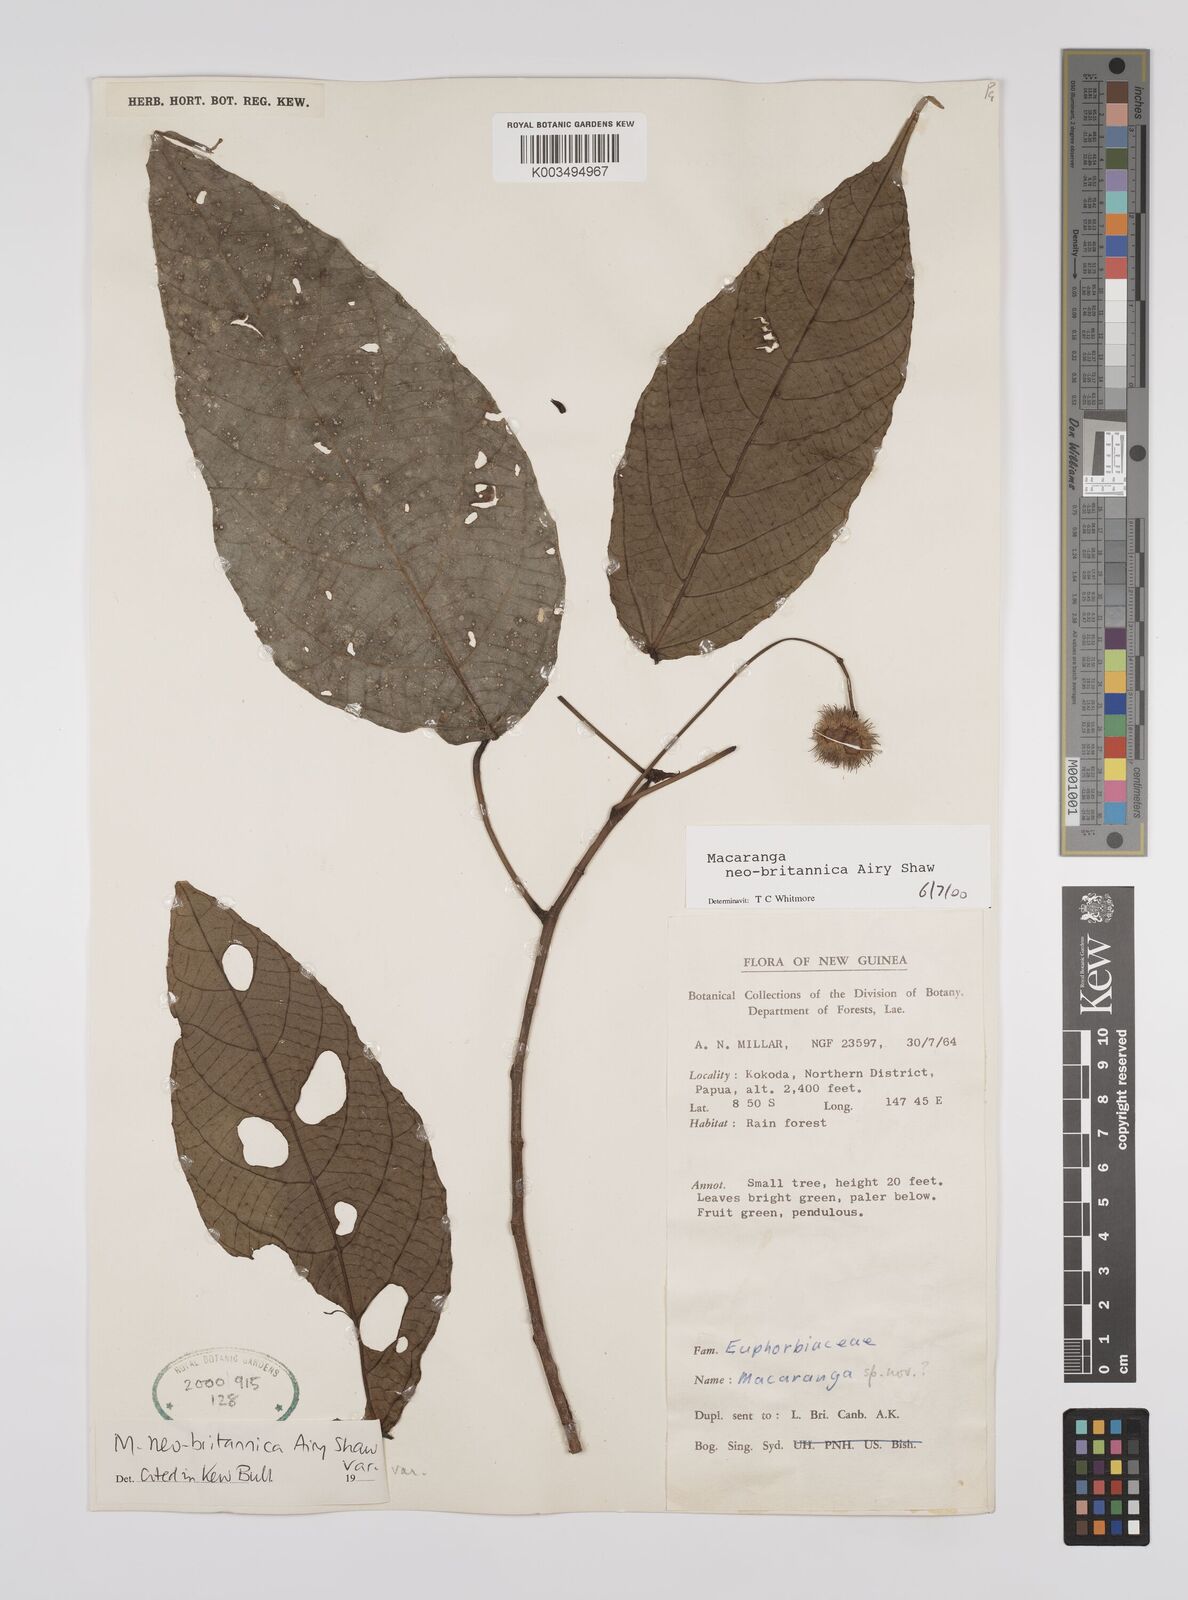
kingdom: Plantae
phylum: Tracheophyta
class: Magnoliopsida
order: Malpighiales
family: Euphorbiaceae
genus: Macaranga
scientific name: Macaranga neobritannica
